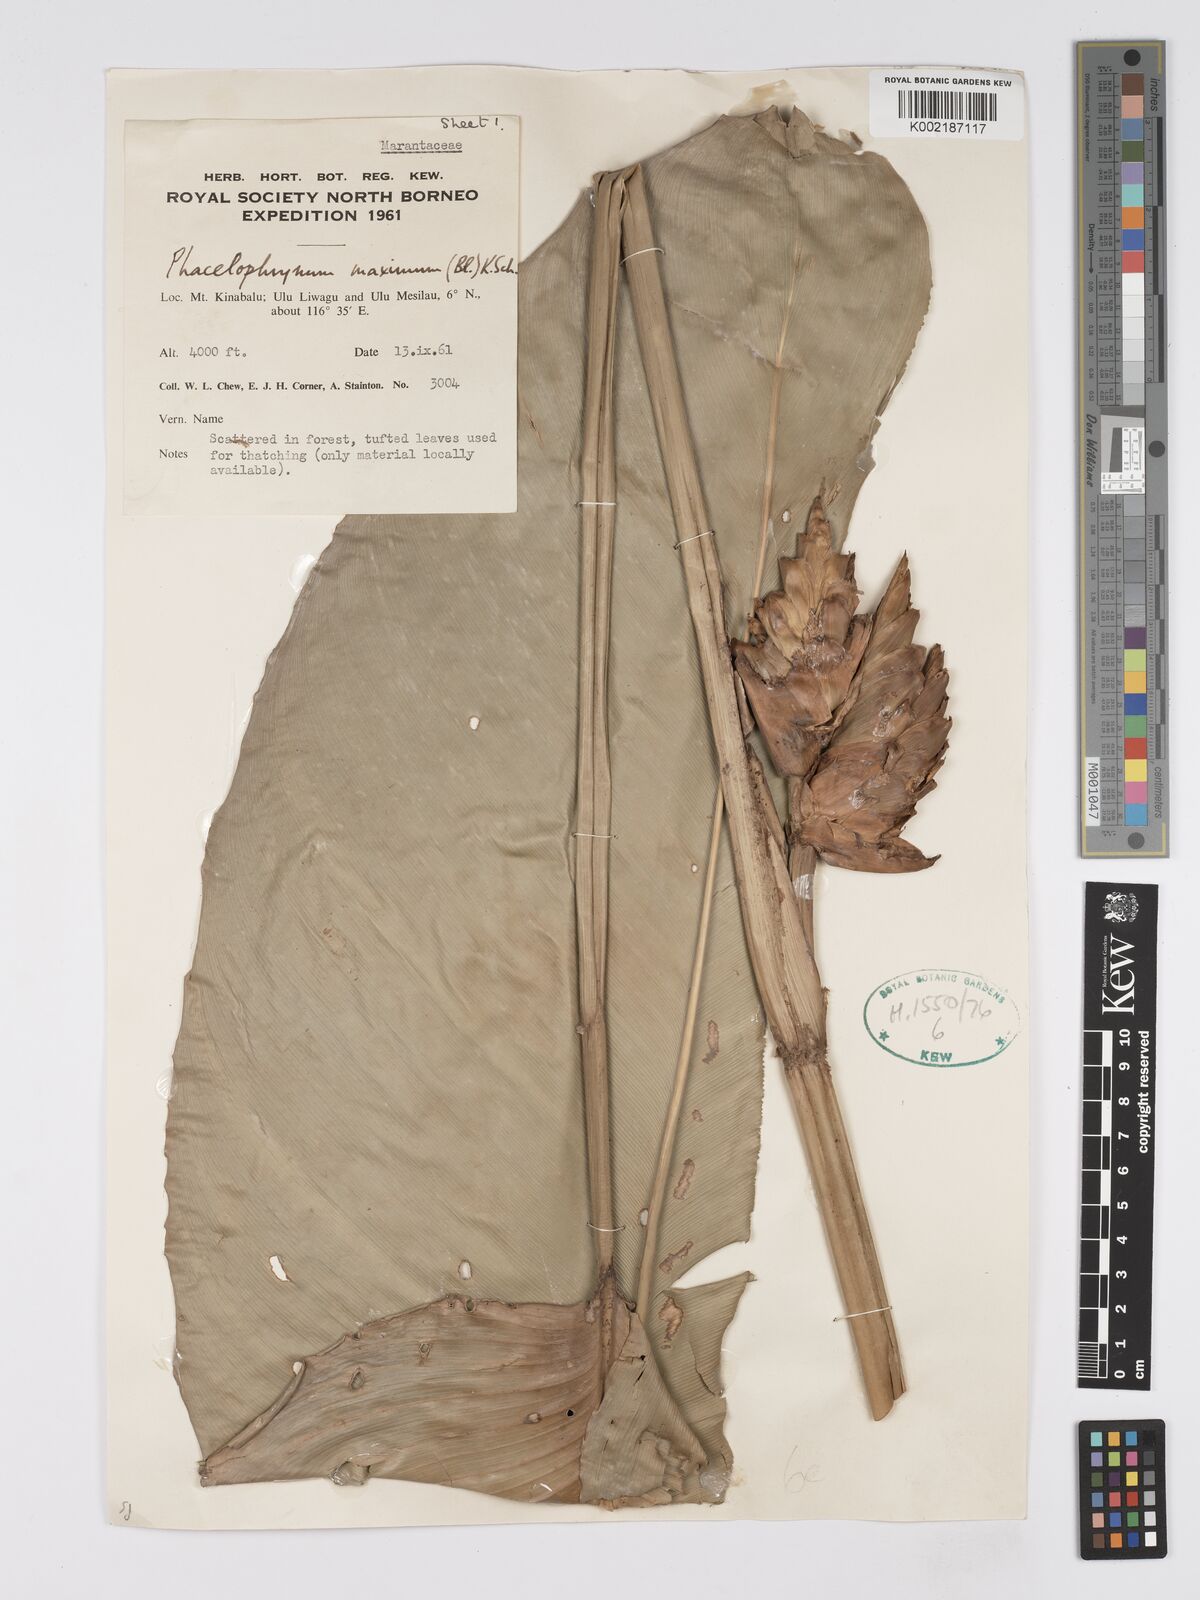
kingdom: Plantae
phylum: Tracheophyta
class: Liliopsida
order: Zingiberales
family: Marantaceae
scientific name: Marantaceae
